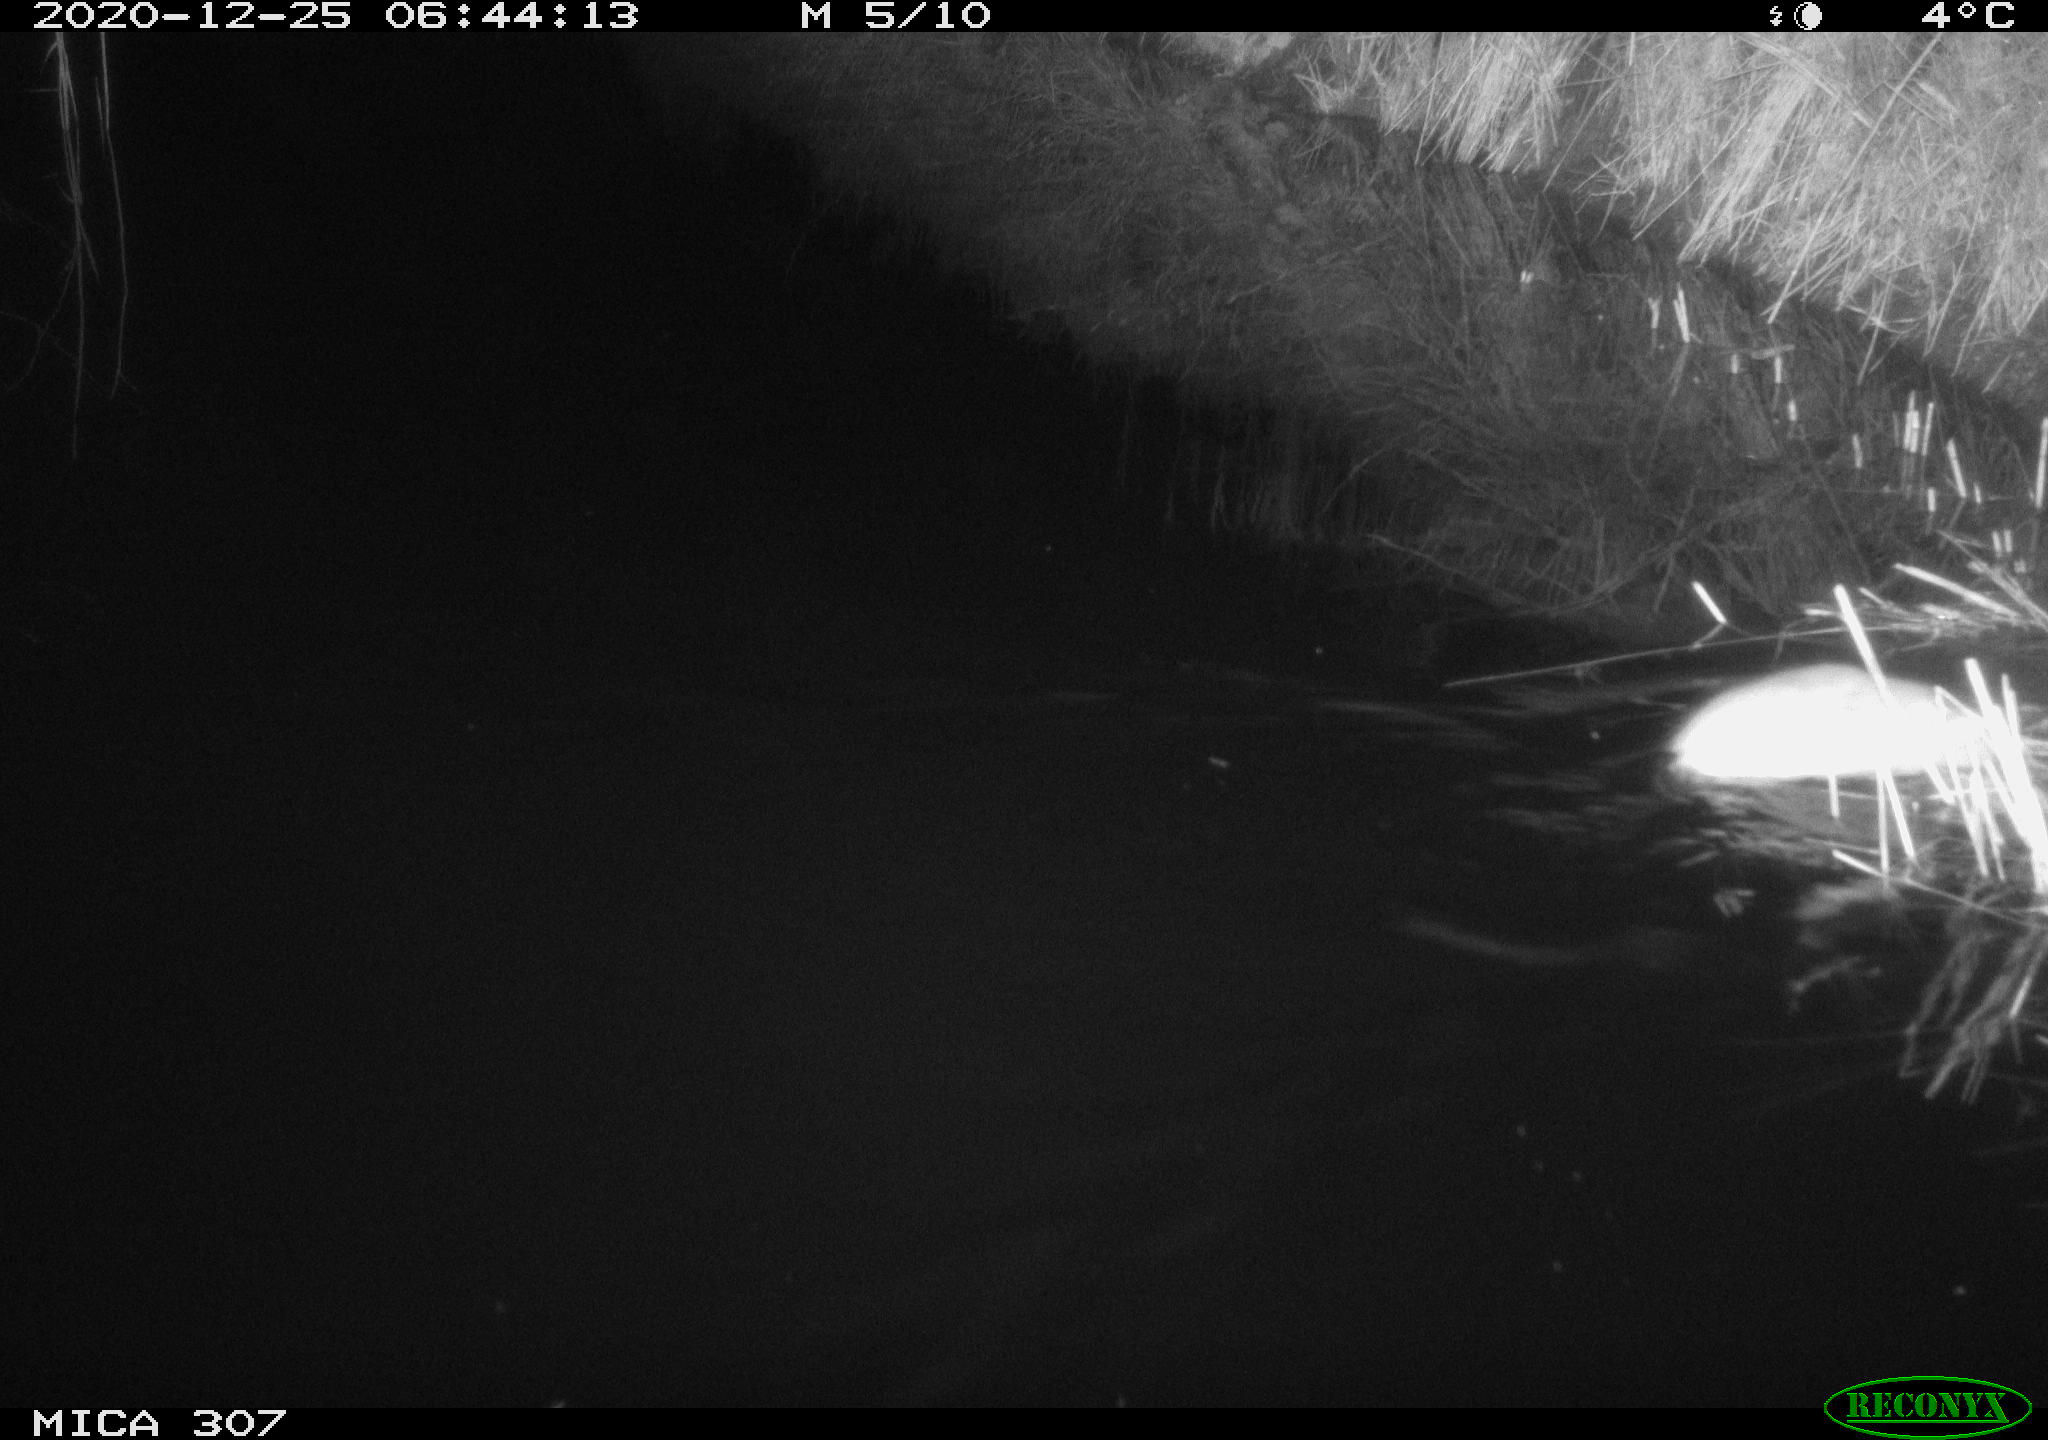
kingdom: Animalia
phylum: Chordata
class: Mammalia
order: Rodentia
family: Cricetidae
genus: Ondatra
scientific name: Ondatra zibethicus
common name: Muskrat
